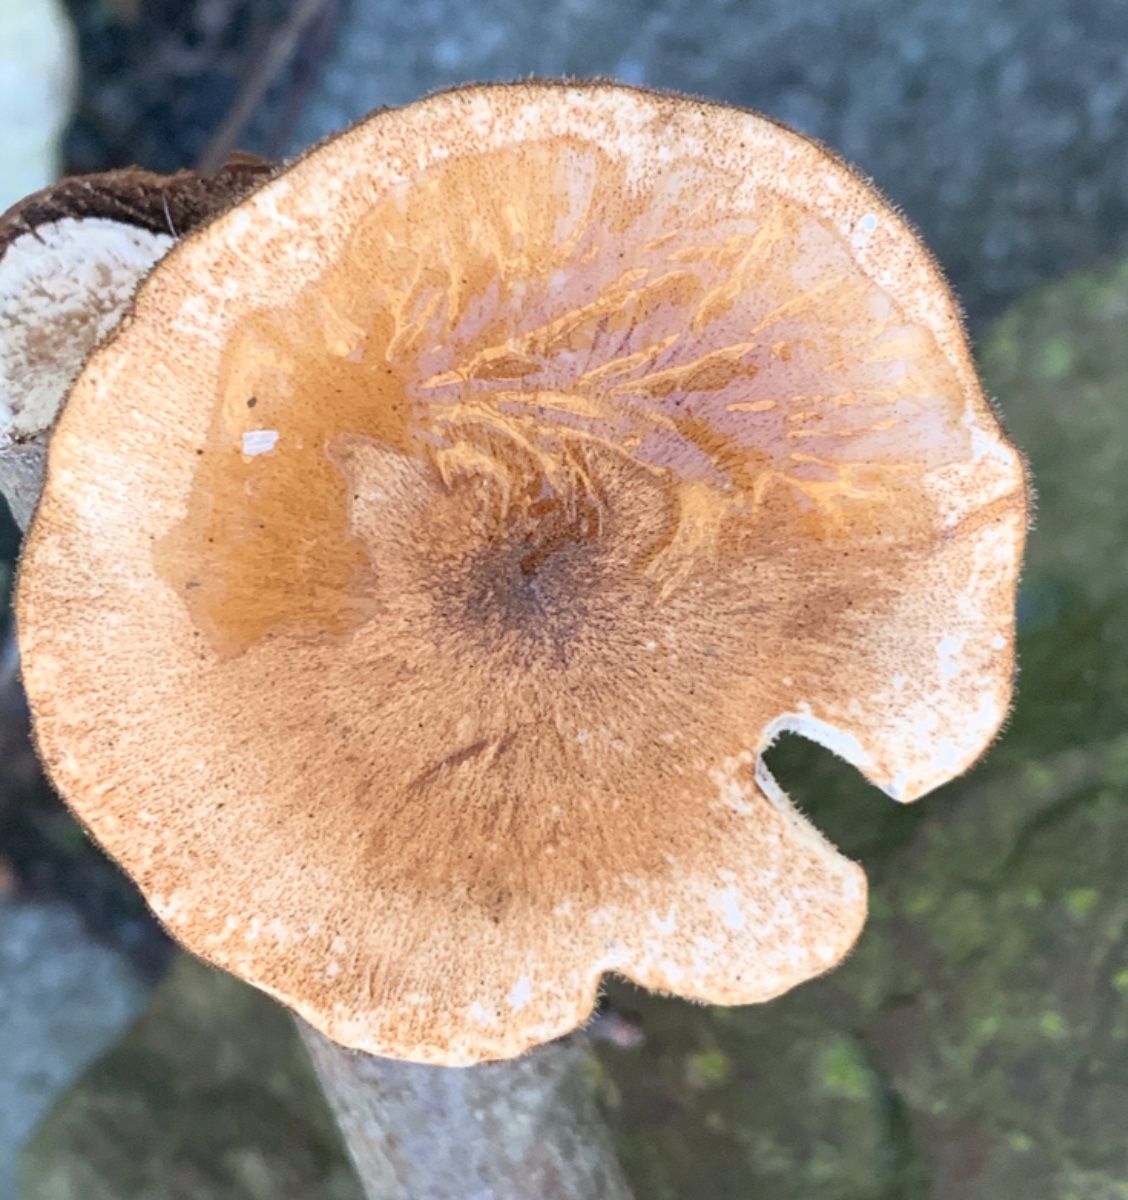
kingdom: Fungi
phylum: Basidiomycota
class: Agaricomycetes
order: Polyporales
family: Polyporaceae
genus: Lentinus
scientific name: Lentinus brumalis
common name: vinter-stilkporesvamp
